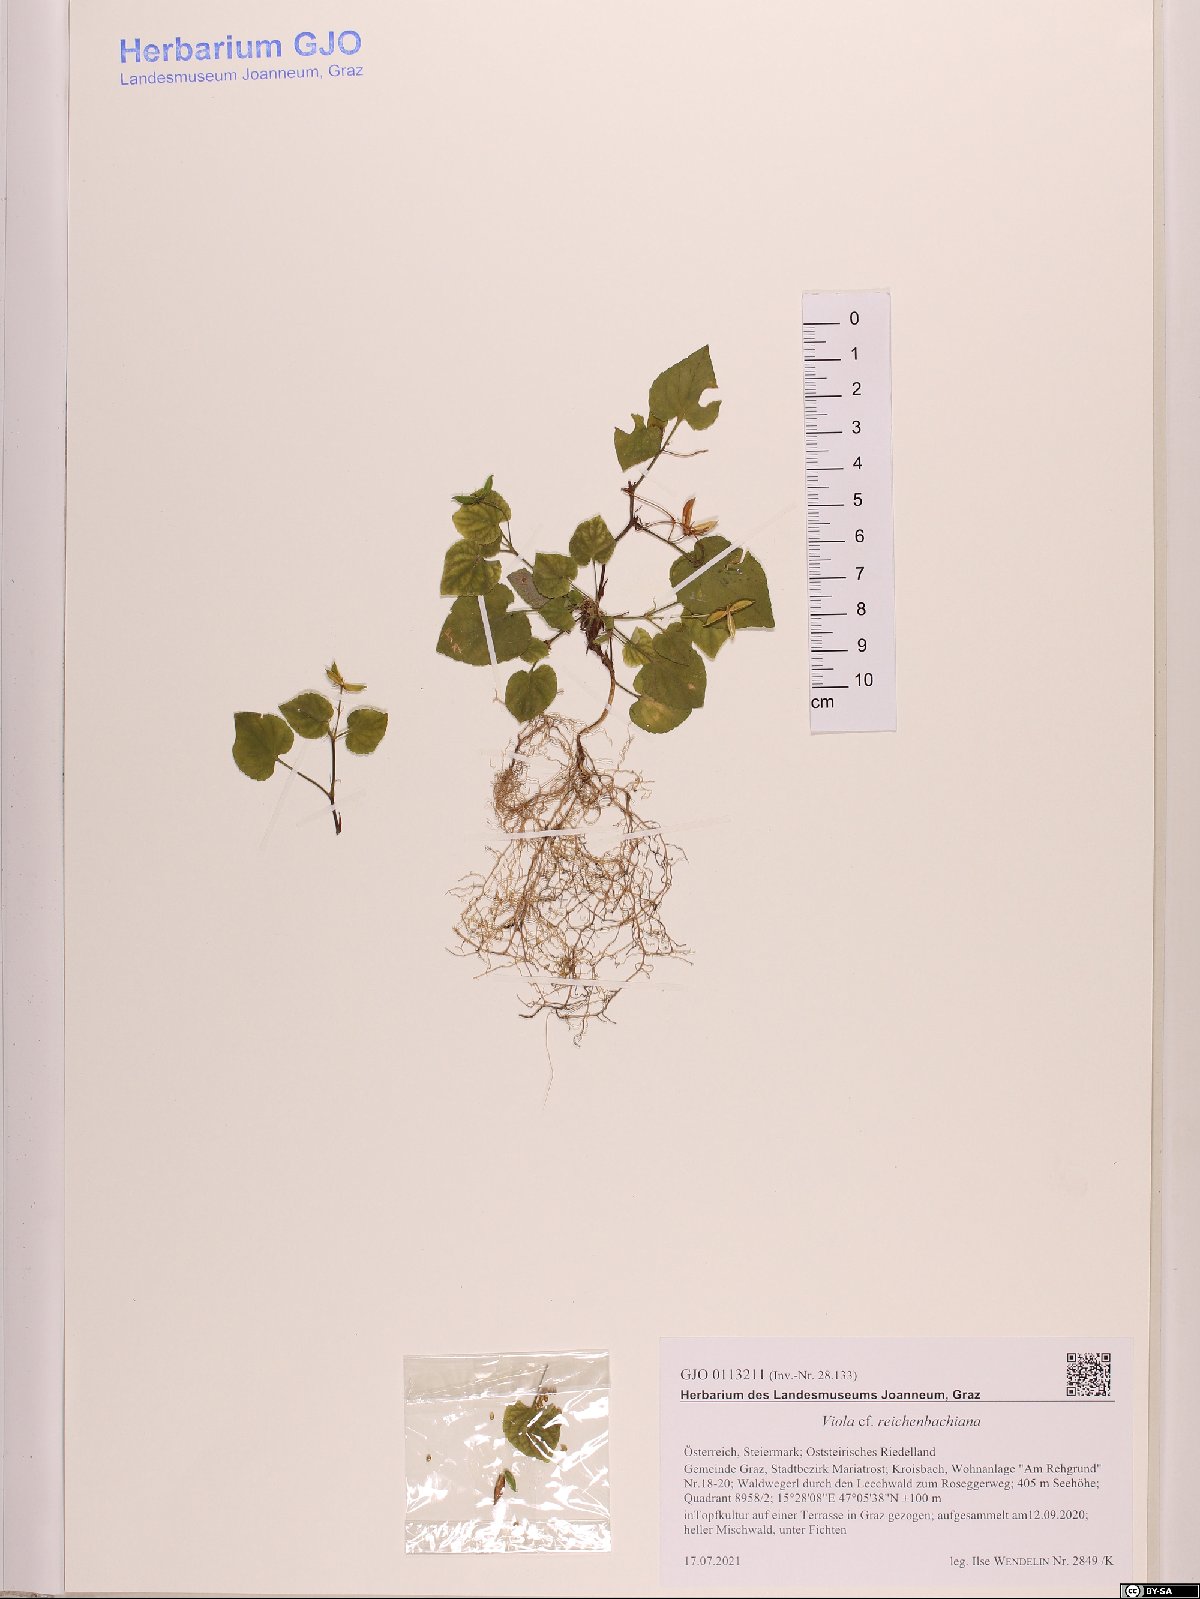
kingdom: Plantae
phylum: Tracheophyta
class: Magnoliopsida
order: Malpighiales
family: Violaceae
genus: Viola
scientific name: Viola reichenbachiana
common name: Early dog-violet
